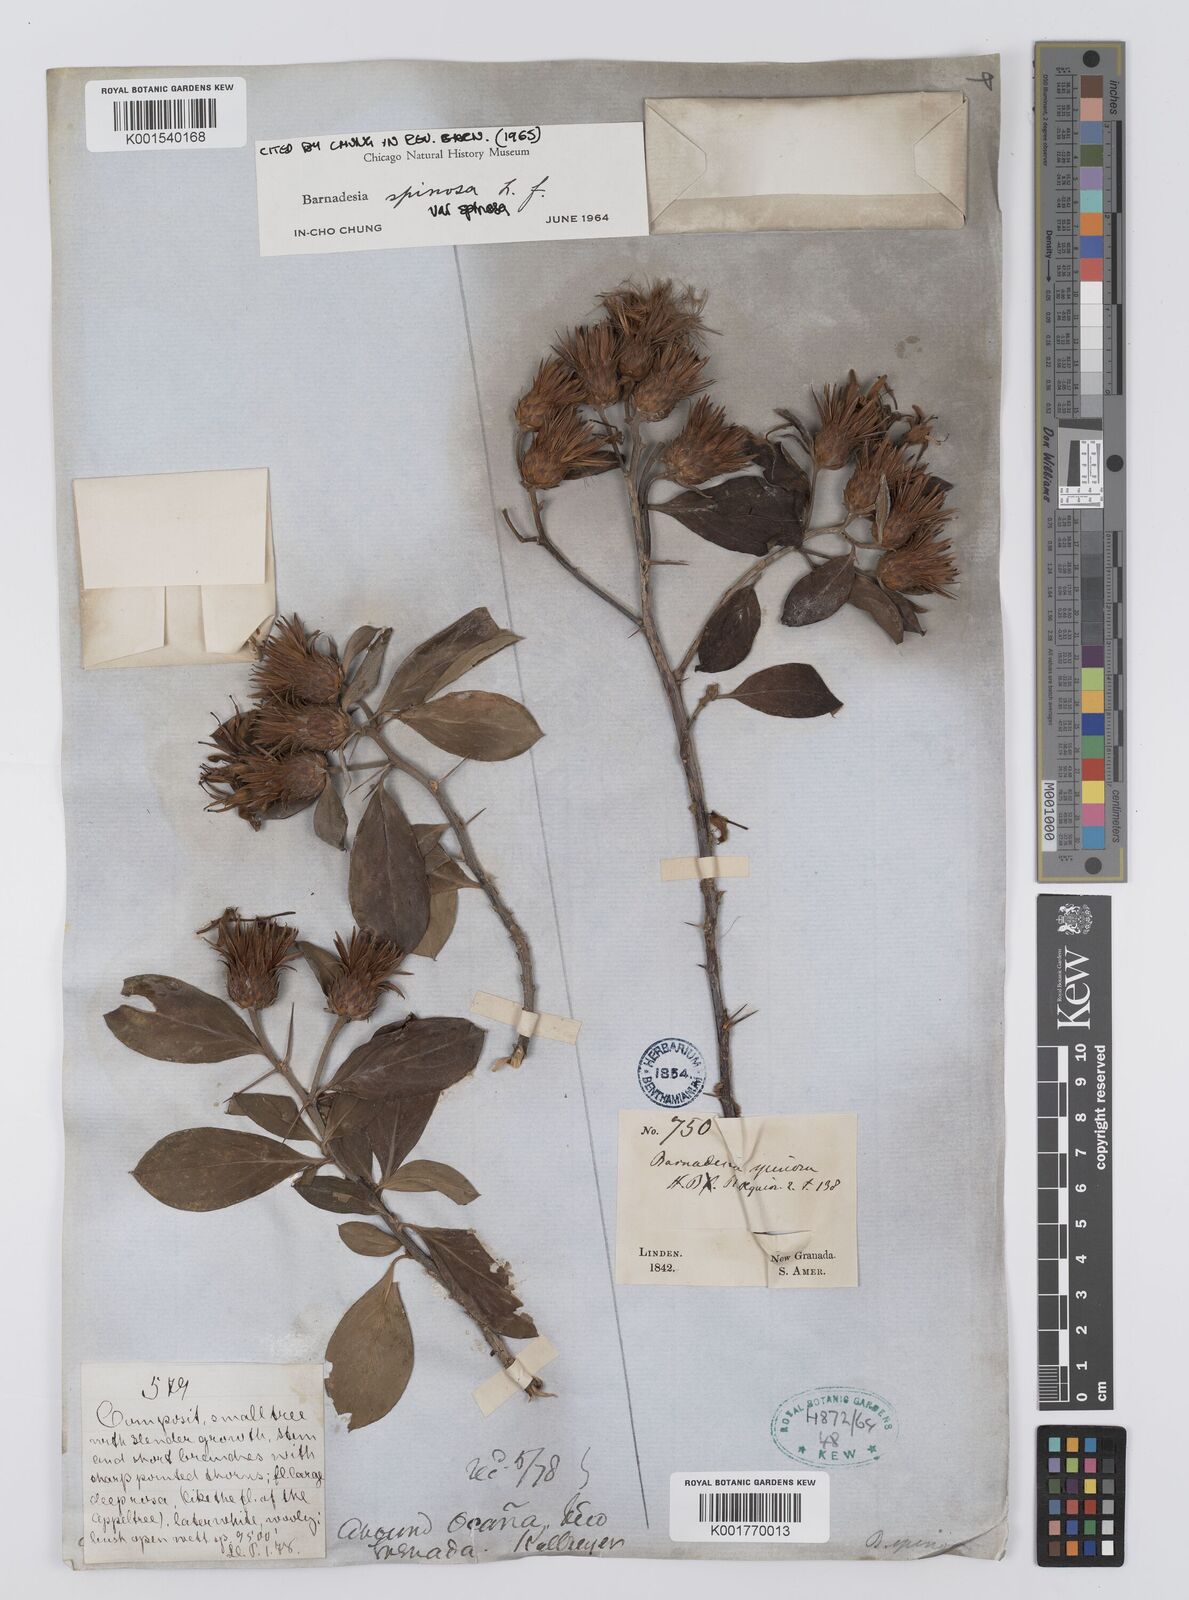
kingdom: Plantae
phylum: Tracheophyta
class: Magnoliopsida
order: Asterales
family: Asteraceae
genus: Barnadesia
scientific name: Barnadesia spinosa
